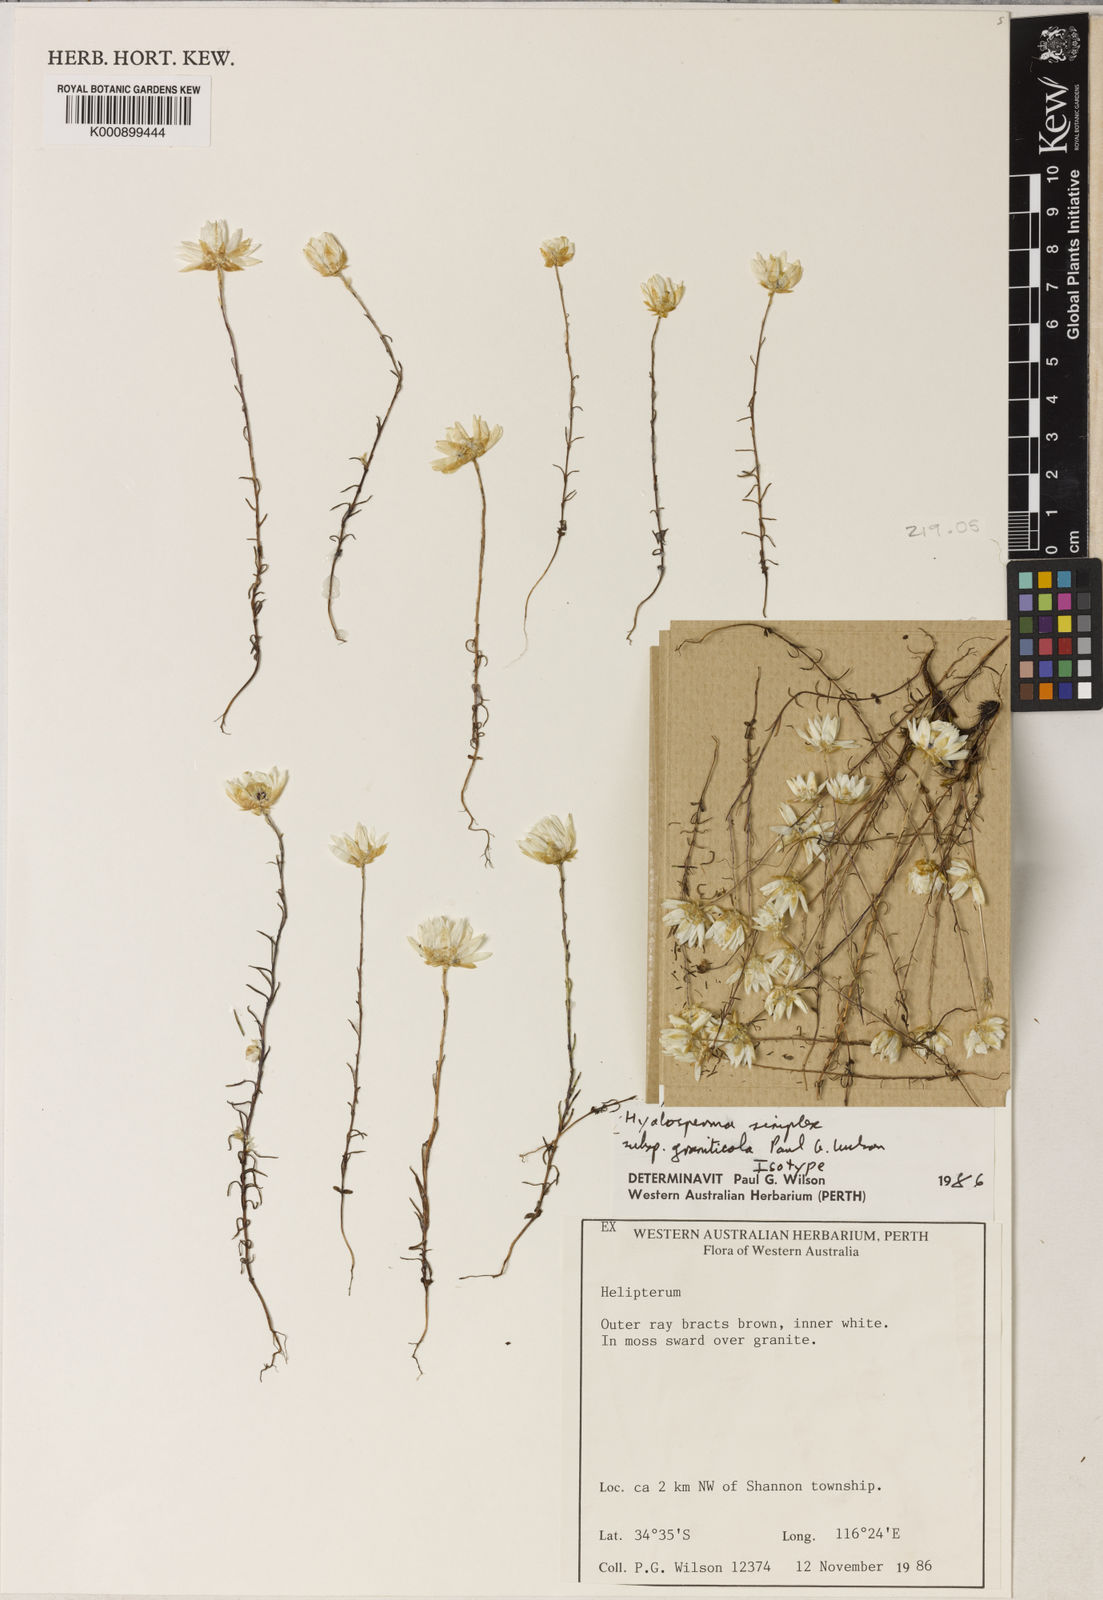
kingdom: Plantae
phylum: Tracheophyta
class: Magnoliopsida
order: Asterales
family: Asteraceae
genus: Hyalosperma
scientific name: Hyalosperma simplex
